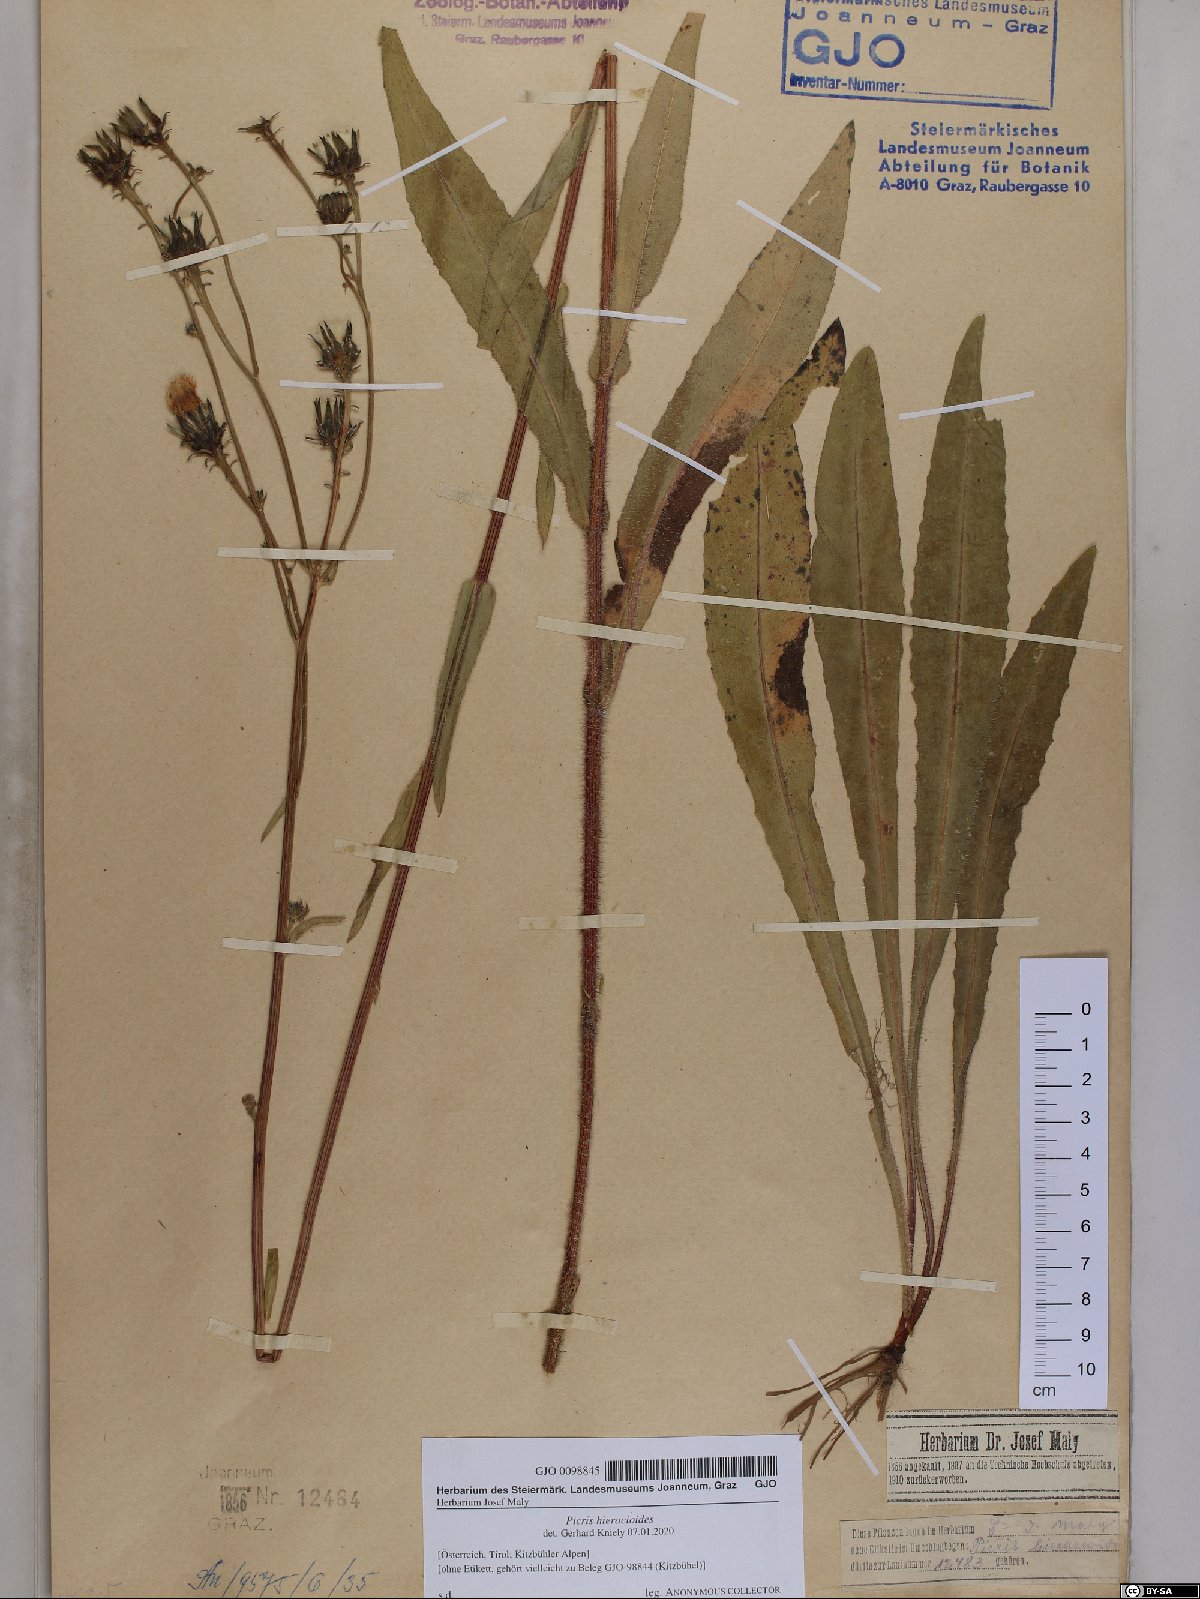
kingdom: Plantae
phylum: Tracheophyta
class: Magnoliopsida
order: Asterales
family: Asteraceae
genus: Picris
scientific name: Picris hieracioides
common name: Hawkweed oxtongue
